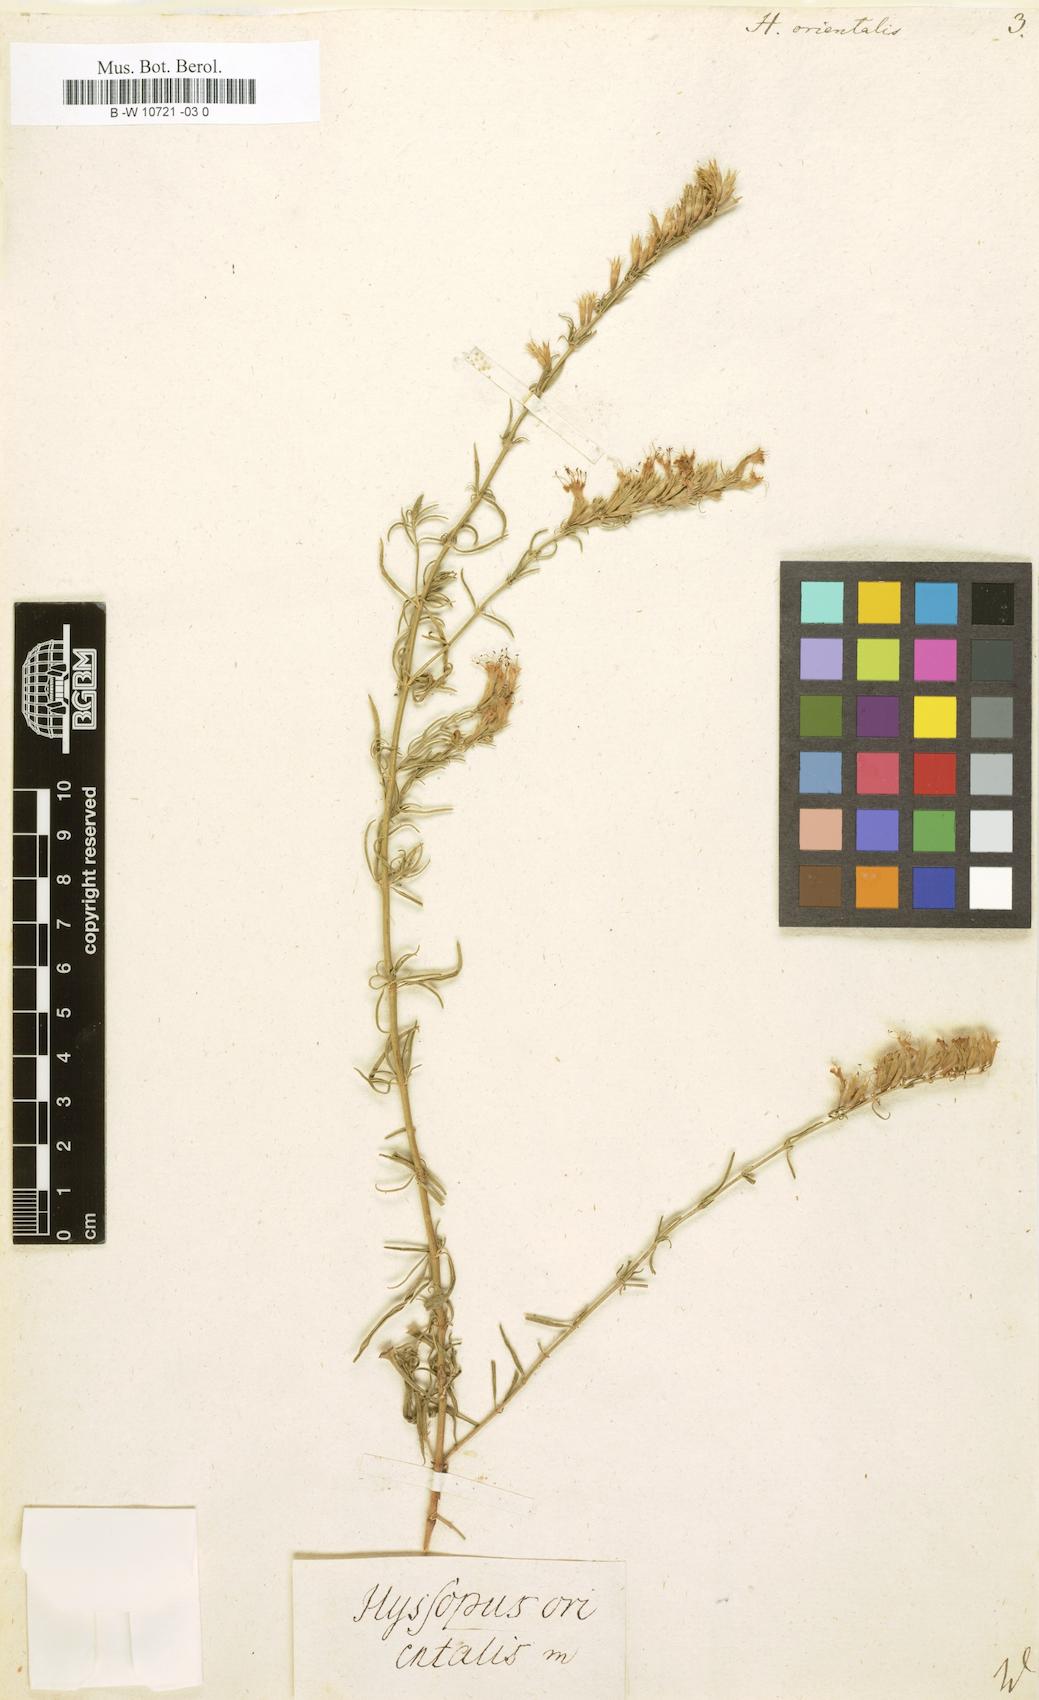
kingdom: Plantae
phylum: Tracheophyta
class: Magnoliopsida
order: Lamiales
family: Lamiaceae
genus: Hyssopus
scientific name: Hyssopus officinalis
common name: Hyssop
